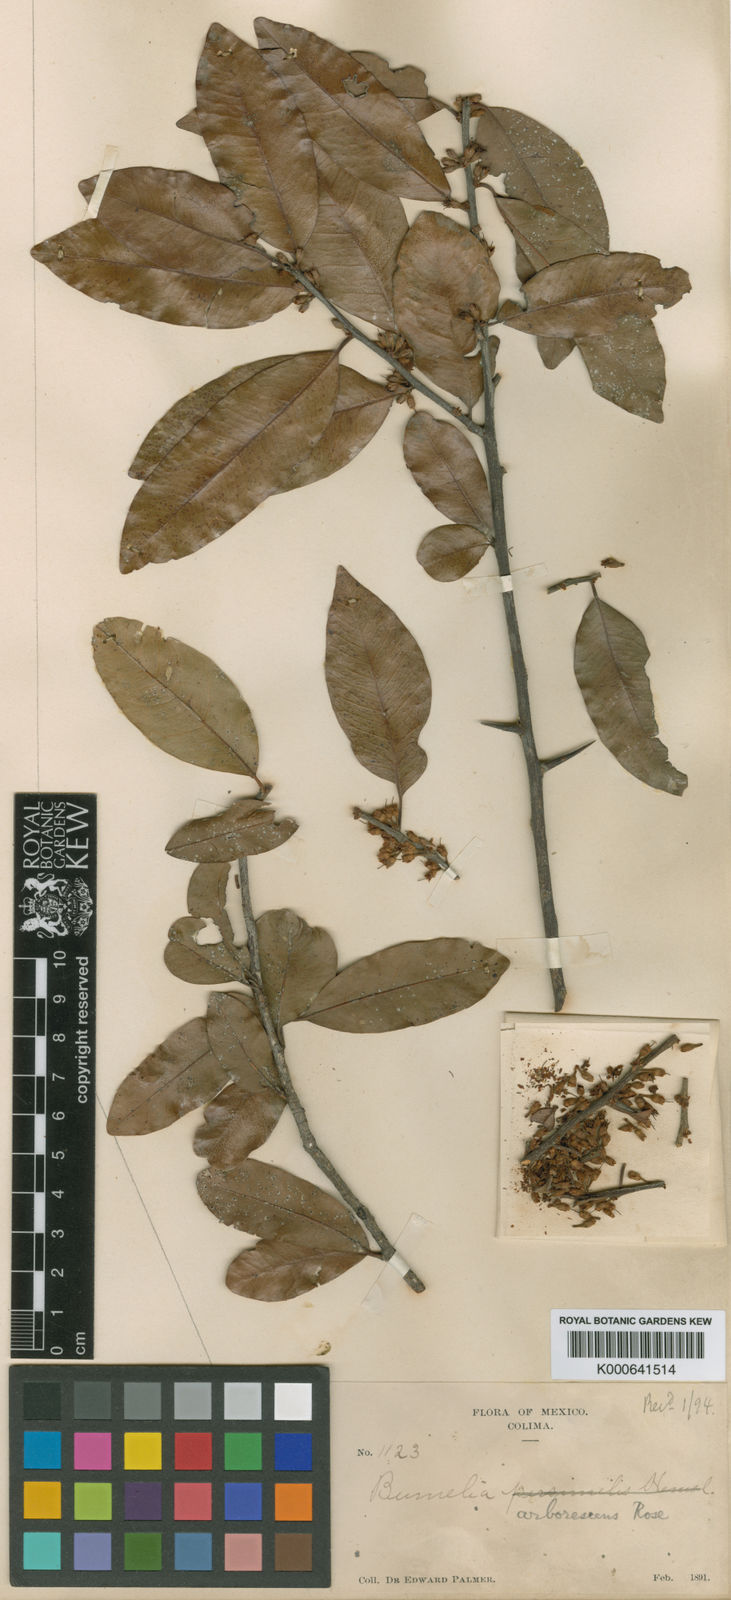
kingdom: Plantae
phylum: Tracheophyta
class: Magnoliopsida
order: Ericales
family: Sapotaceae
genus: Sideroxylon
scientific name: Sideroxylon persimile
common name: Bumelia
